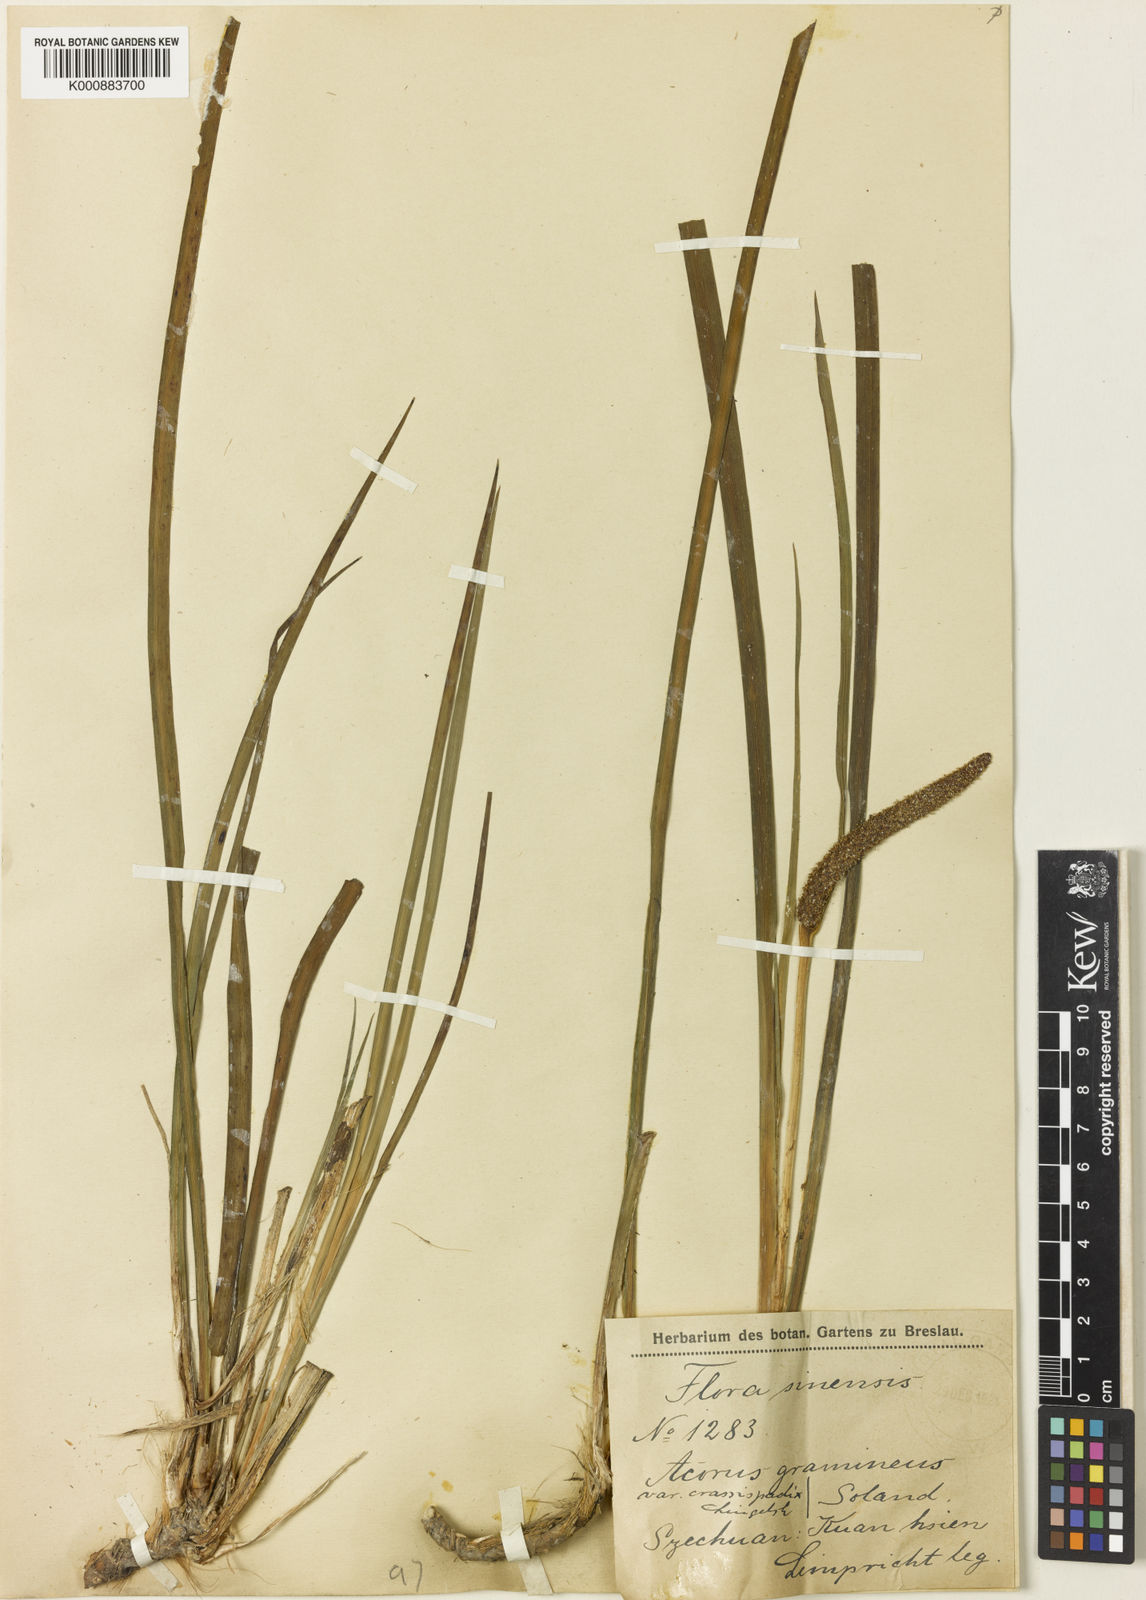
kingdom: Plantae
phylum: Tracheophyta
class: Liliopsida
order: Acorales
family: Acoraceae
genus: Acorus
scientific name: Acorus gramineus
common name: Slender sweet-flag
